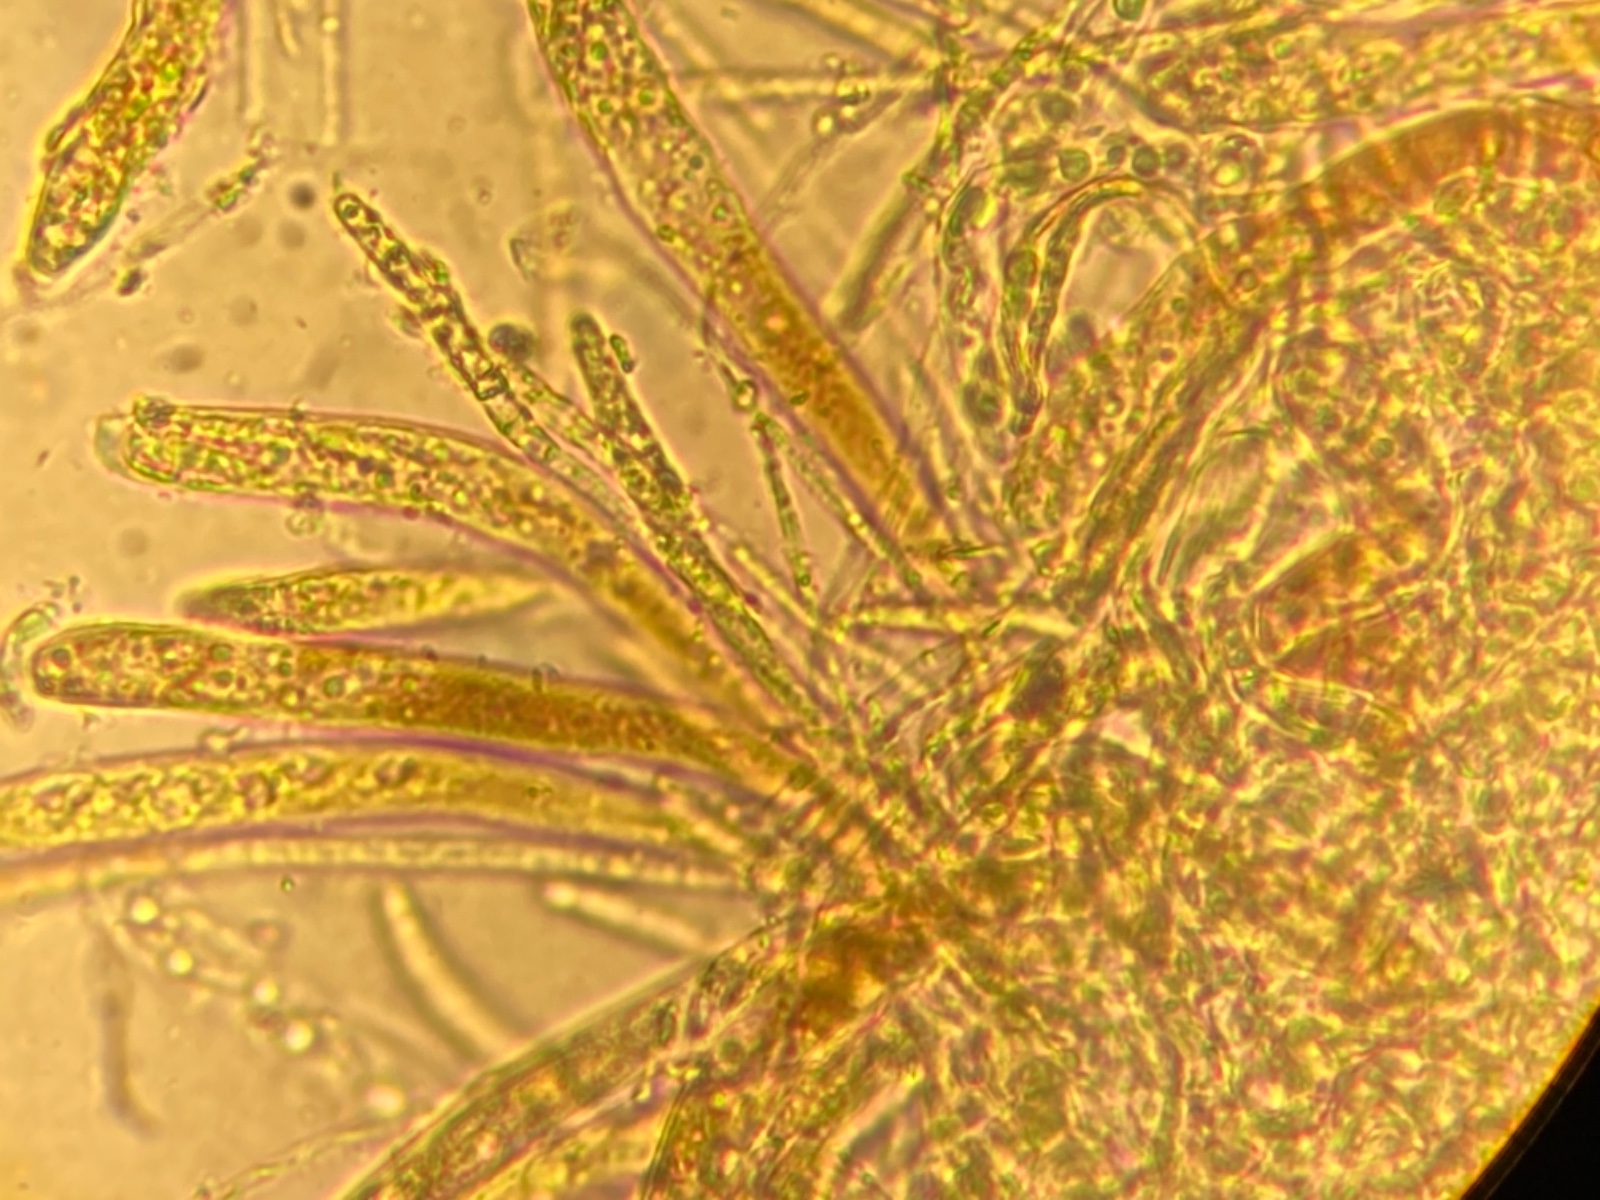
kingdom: Fungi
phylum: Ascomycota
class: Leotiomycetes
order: Helotiales
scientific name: Helotiales
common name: stilkskiveordenen
